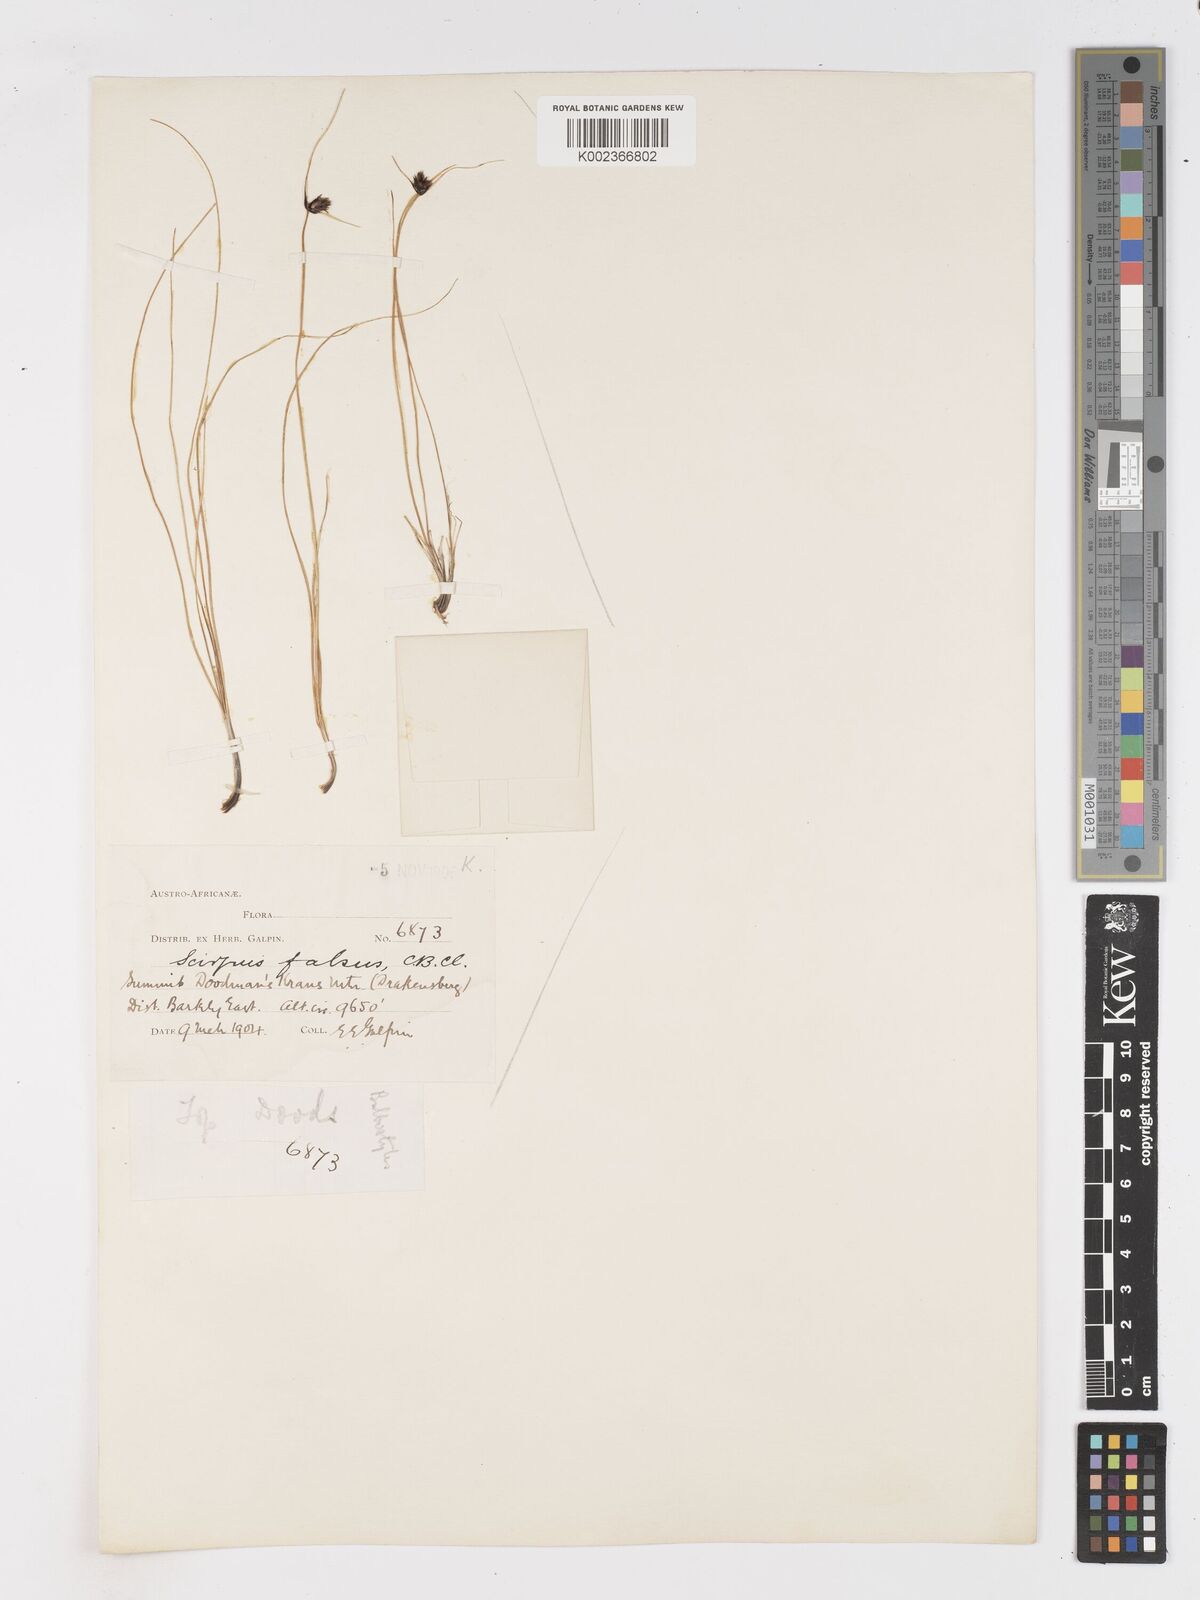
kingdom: Plantae
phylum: Tracheophyta
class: Liliopsida
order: Poales
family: Cyperaceae
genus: Dracoscirpoides
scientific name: Dracoscirpoides falsa
